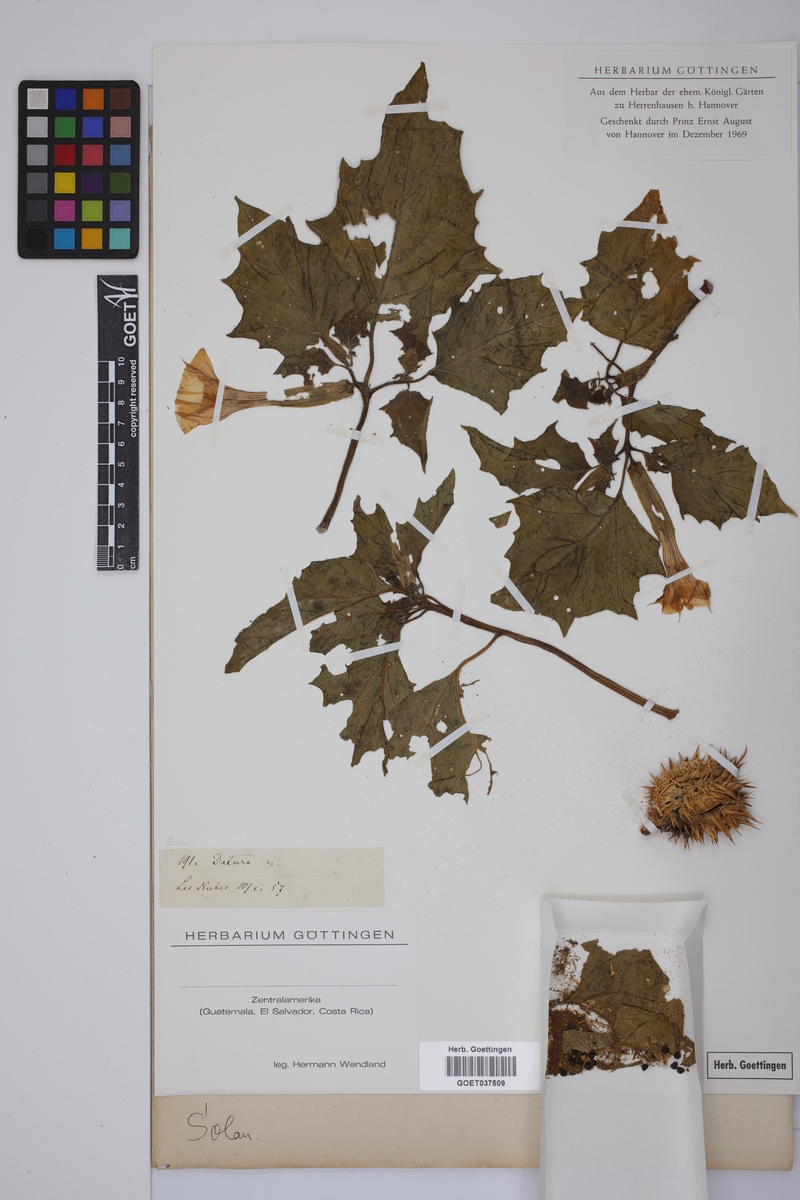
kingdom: Plantae
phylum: Tracheophyta
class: Magnoliopsida
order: Solanales
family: Solanaceae
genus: Datura
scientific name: Datura
